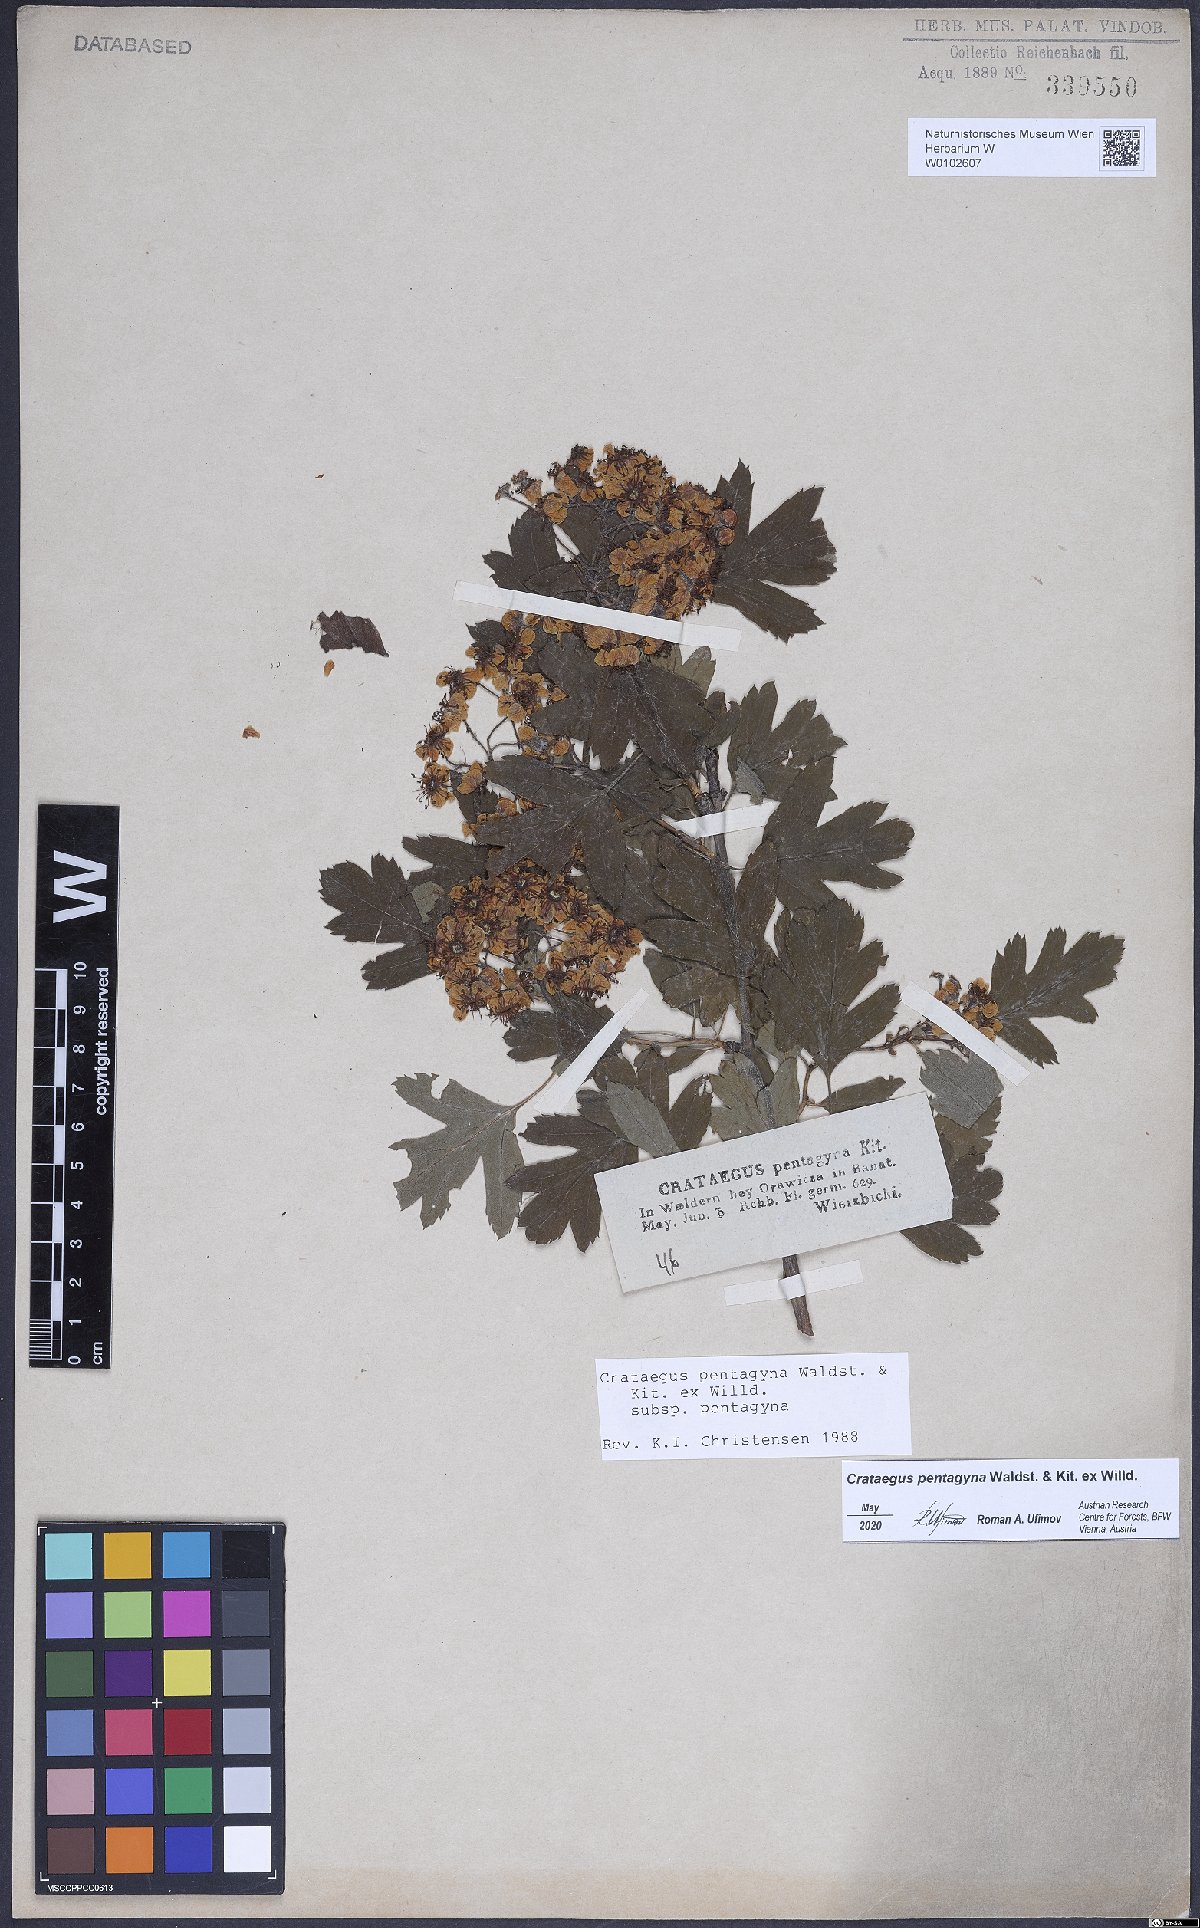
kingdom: Plantae
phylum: Tracheophyta
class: Magnoliopsida
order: Rosales
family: Rosaceae
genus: Crataegus
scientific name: Crataegus pentagyna
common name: Small-flowered black hawthorn
